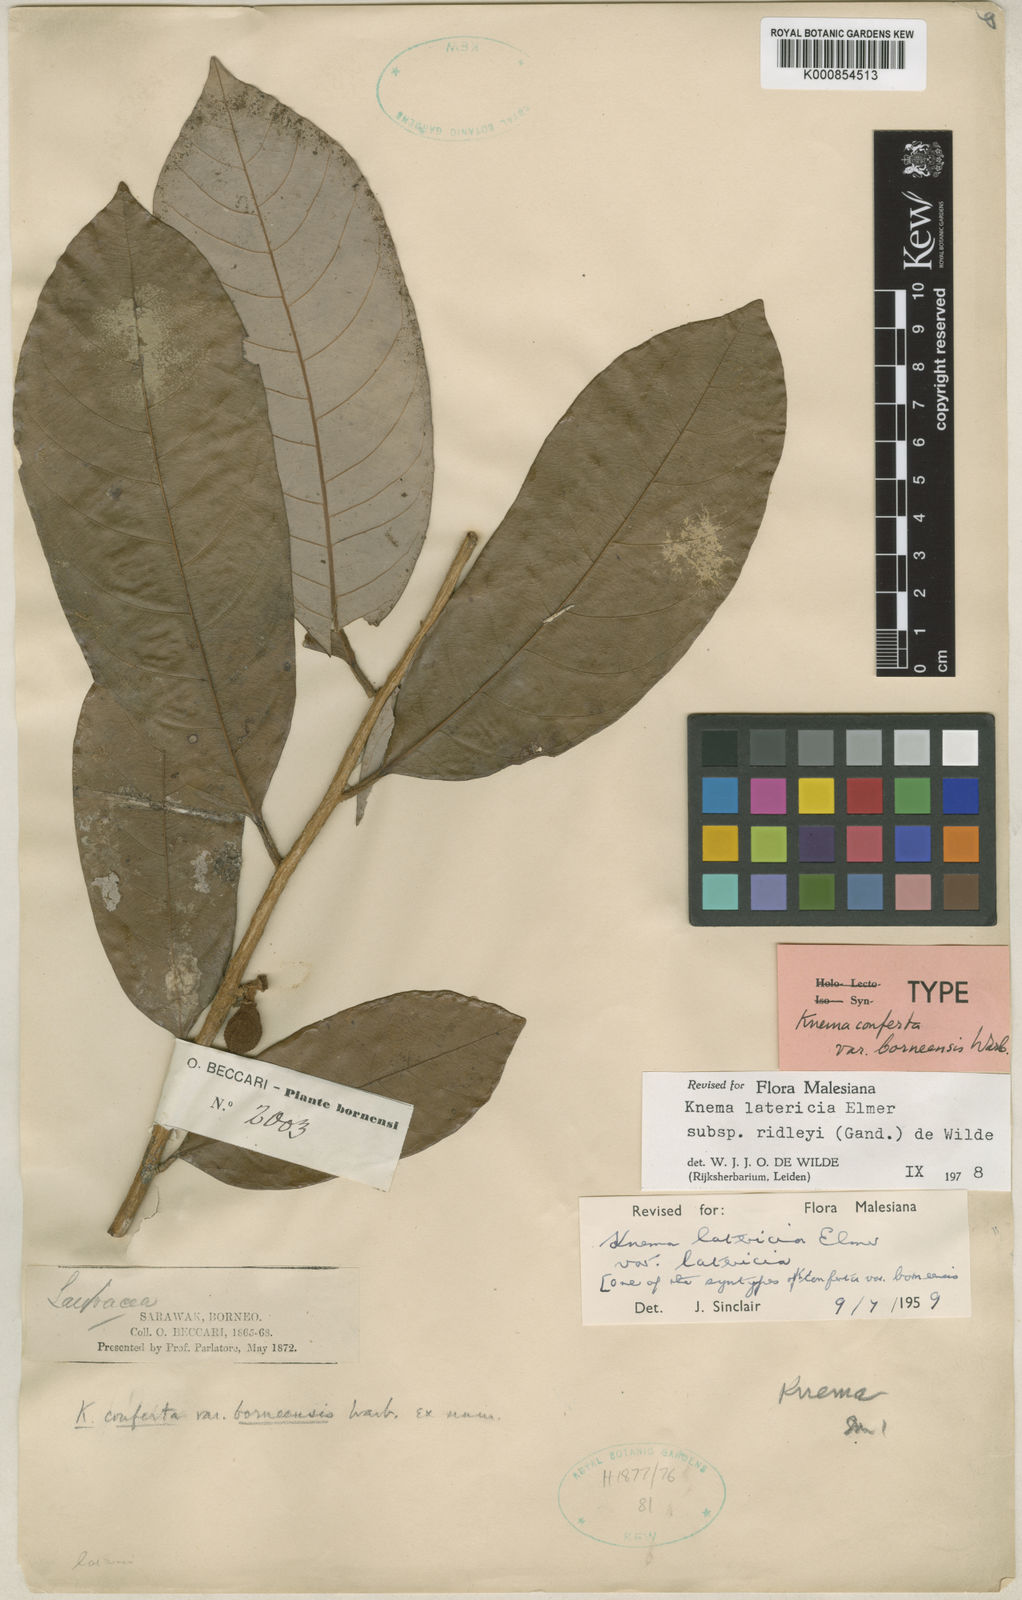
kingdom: Plantae
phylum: Tracheophyta
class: Magnoliopsida
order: Magnoliales
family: Myristicaceae
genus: Knema
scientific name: Knema latericia
